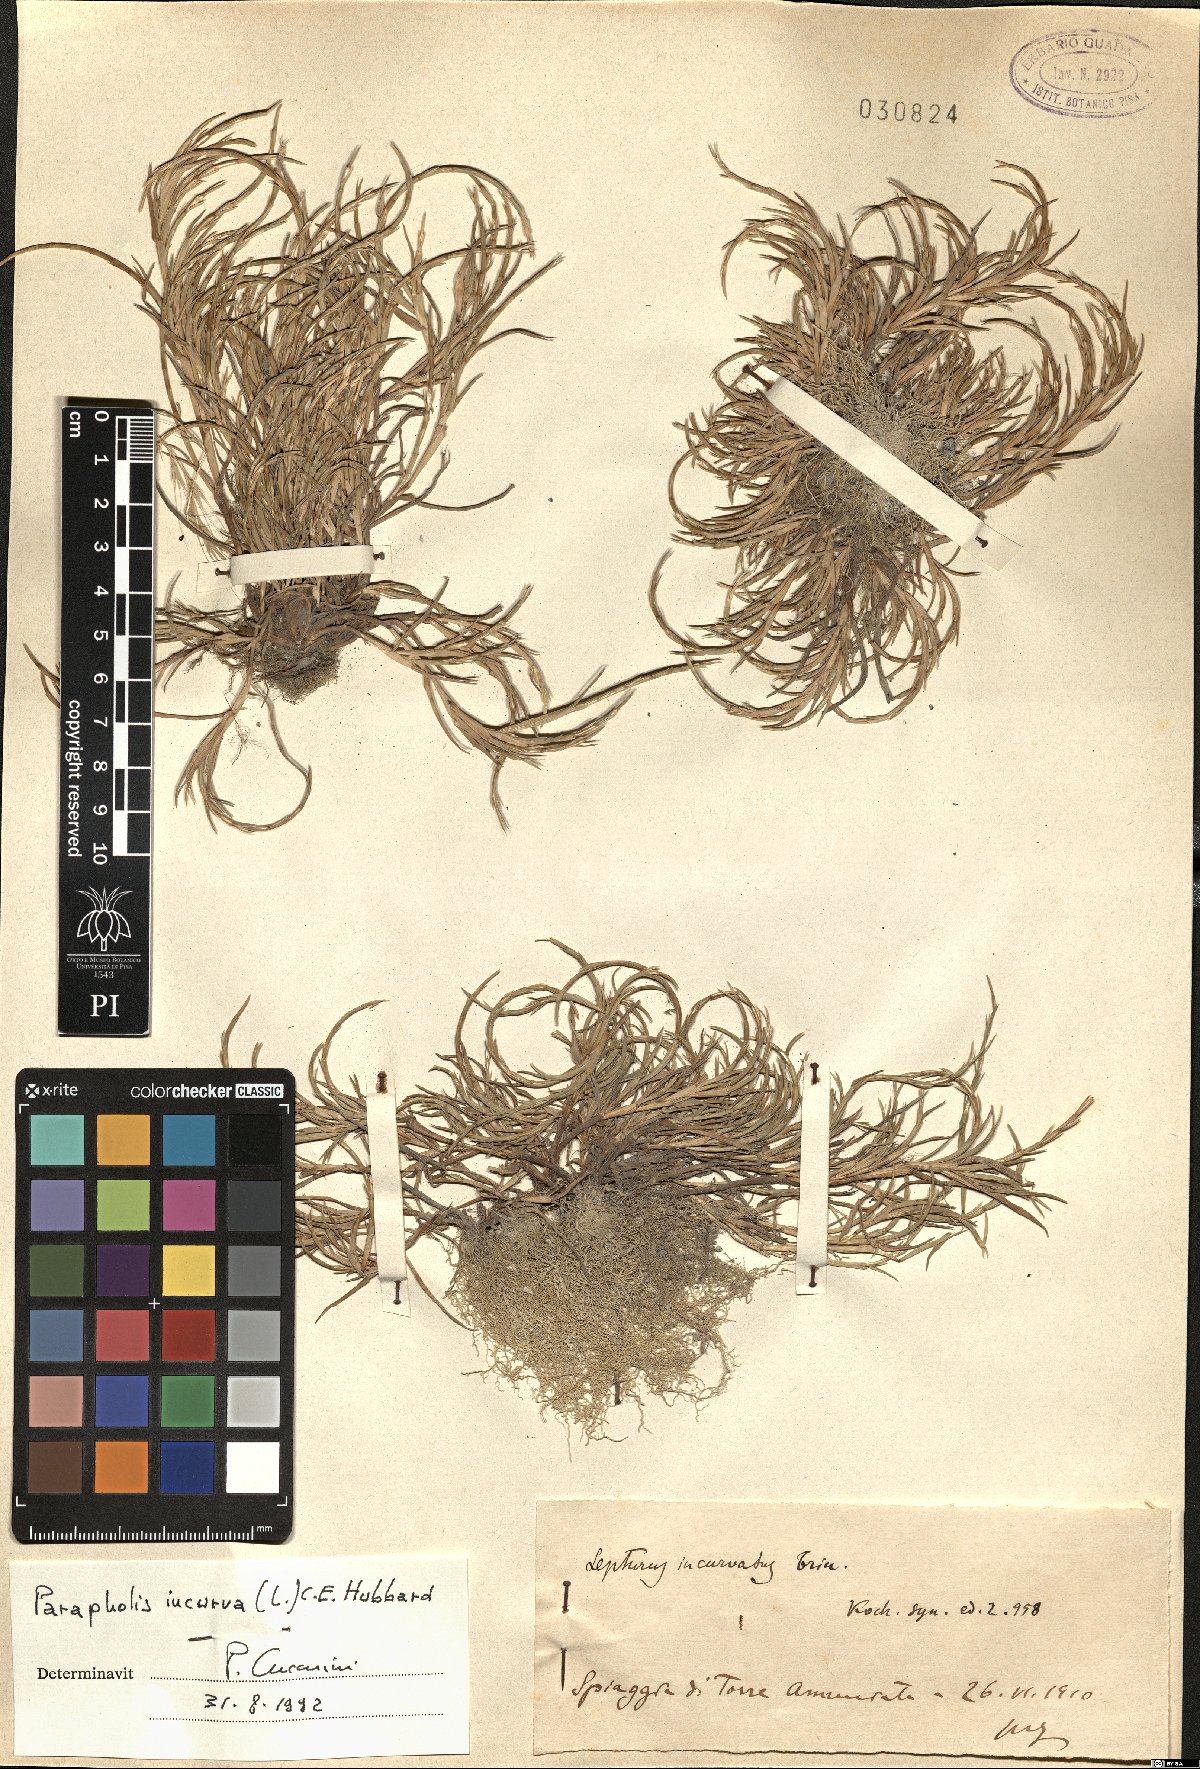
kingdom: Plantae
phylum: Tracheophyta
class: Liliopsida
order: Poales
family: Poaceae
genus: Parapholis
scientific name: Parapholis incurva
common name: Curved sicklegrass
